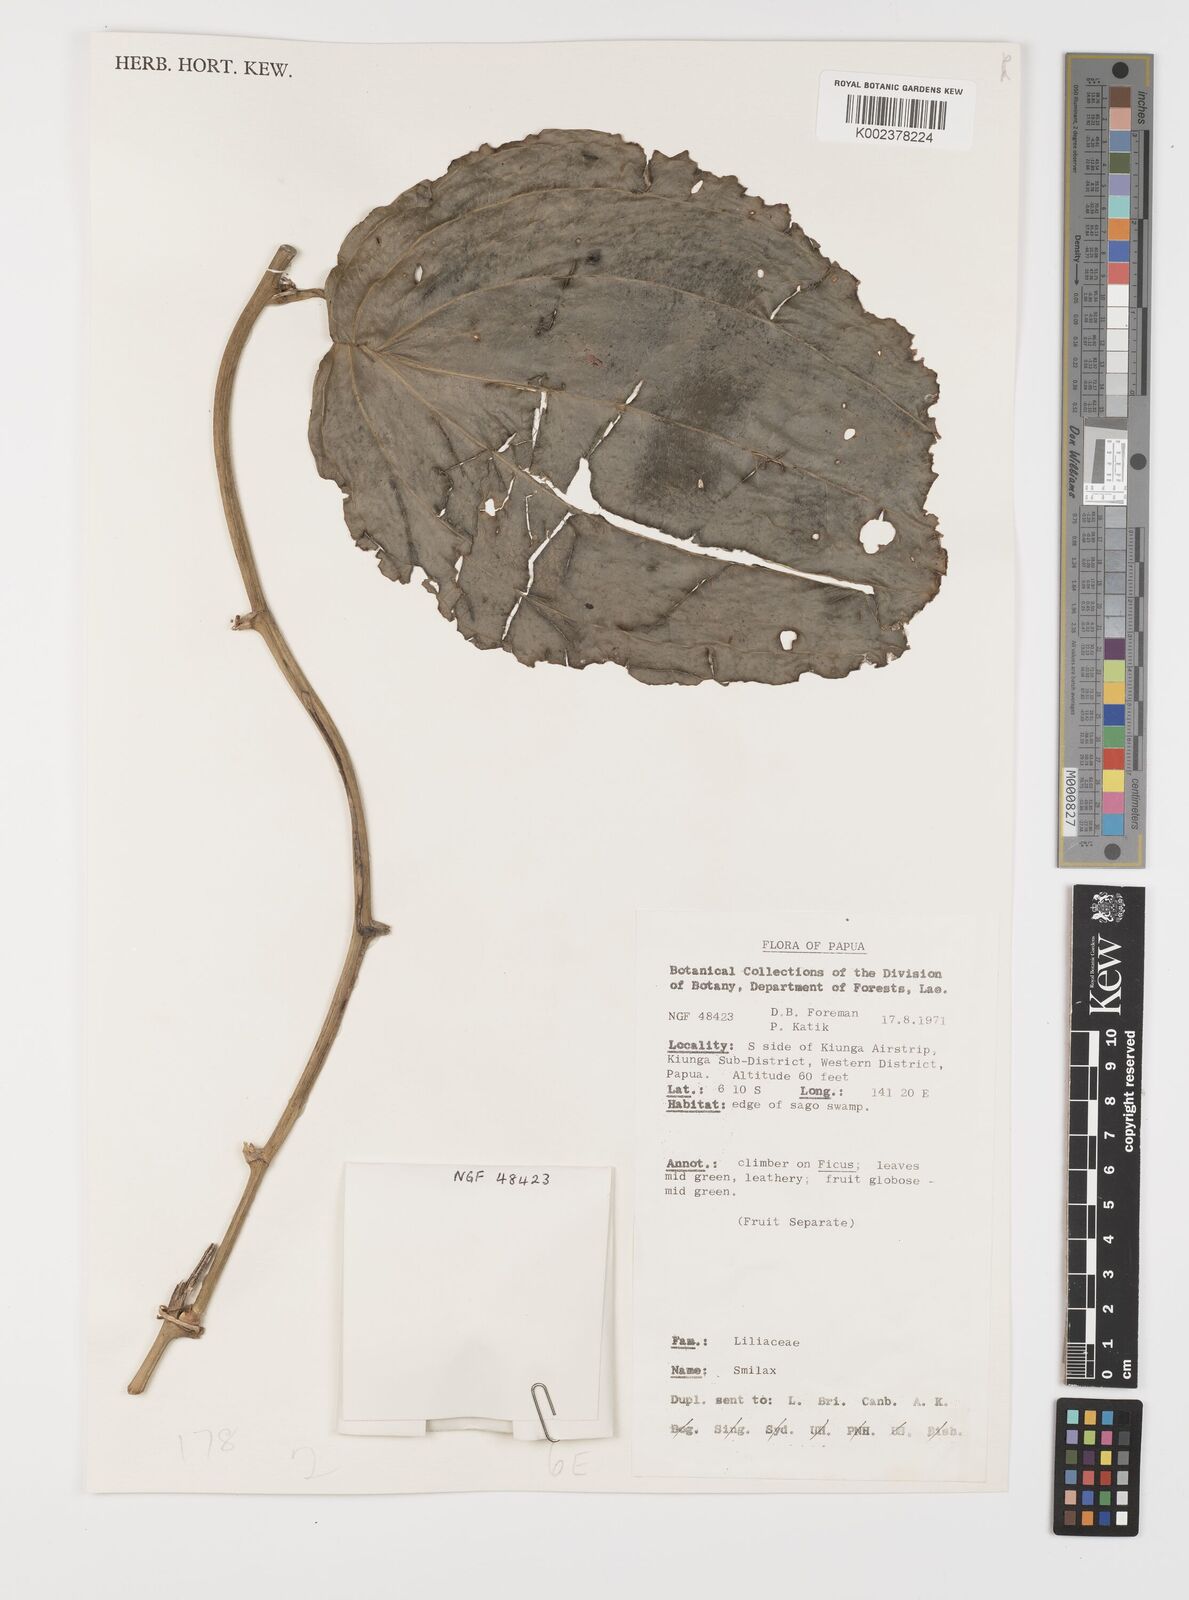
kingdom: Plantae
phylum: Tracheophyta
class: Liliopsida
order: Liliales
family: Smilacaceae
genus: Smilax
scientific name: Smilax
